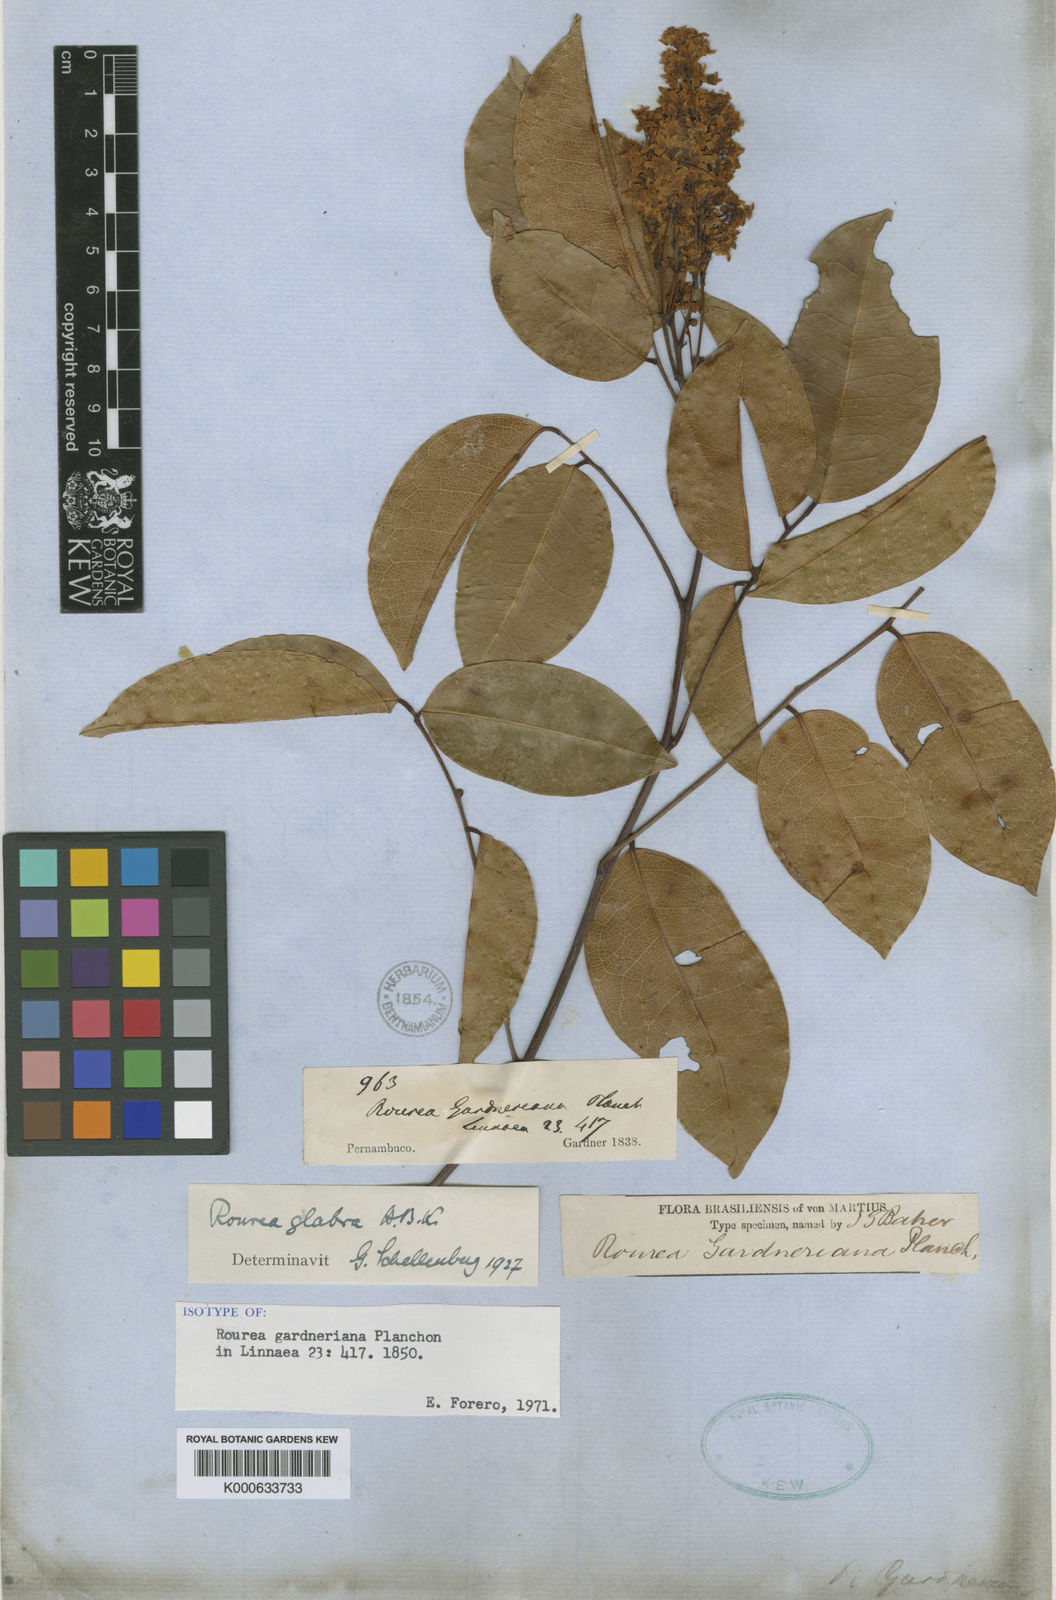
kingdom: Plantae
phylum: Tracheophyta
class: Magnoliopsida
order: Oxalidales
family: Connaraceae
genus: Rourea
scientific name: Rourea glabra
